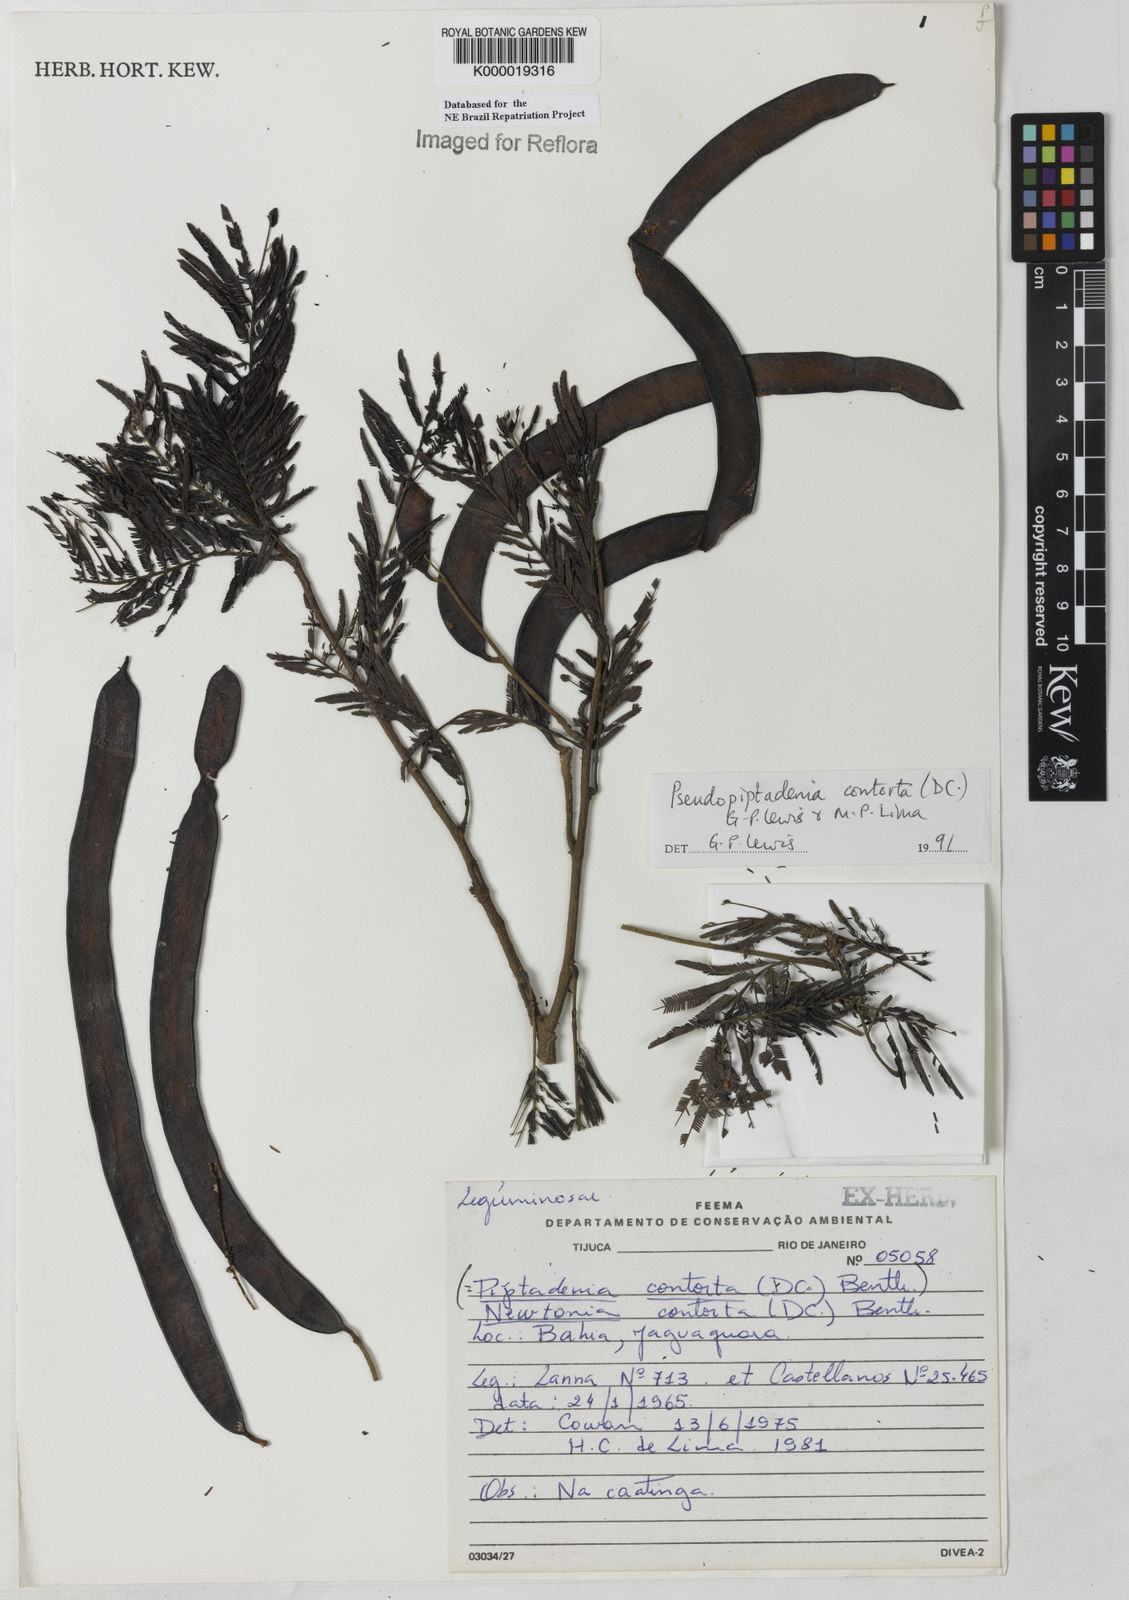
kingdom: Plantae
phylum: Tracheophyta
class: Magnoliopsida
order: Fabales
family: Fabaceae
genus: Pseudopiptadenia
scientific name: Pseudopiptadenia contorta
